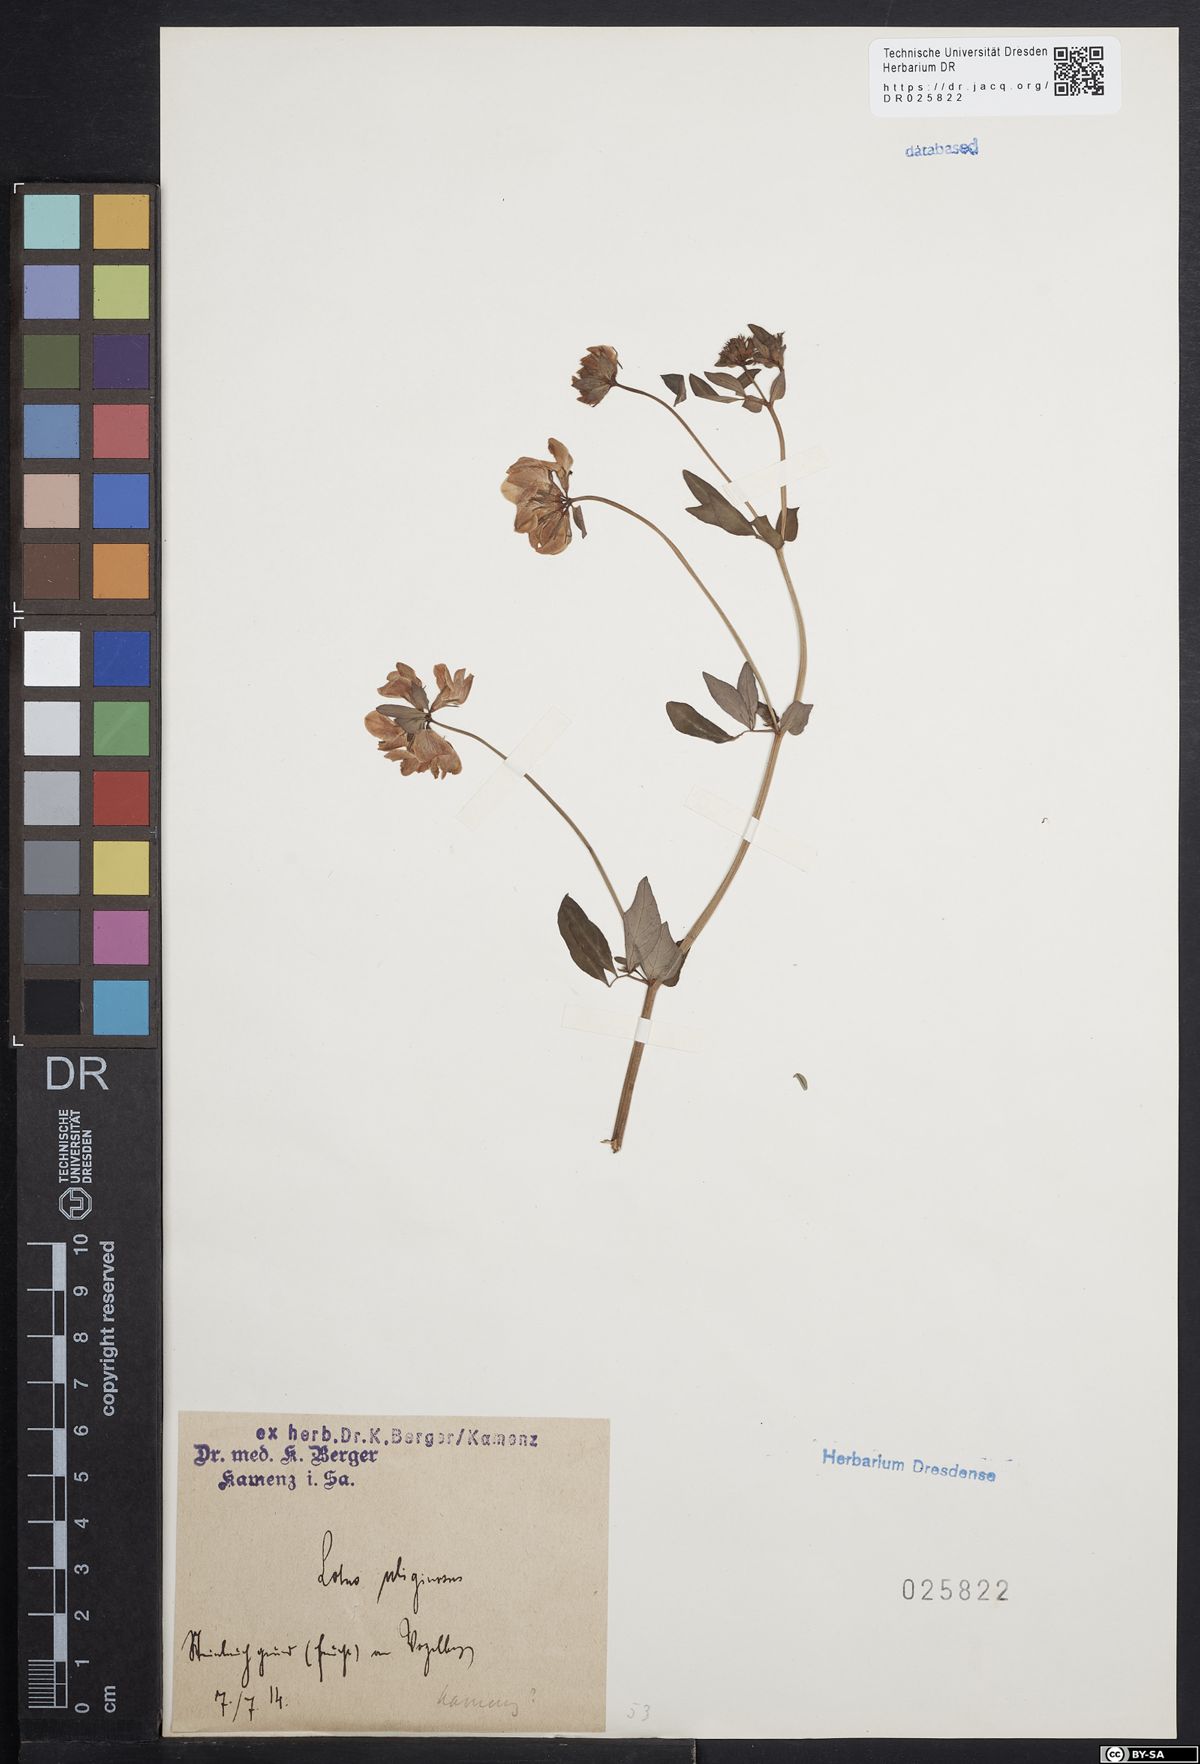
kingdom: Plantae
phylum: Tracheophyta
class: Magnoliopsida
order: Fabales
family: Fabaceae
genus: Lotus
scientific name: Lotus pedunculatus
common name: Greater birdsfoot-trefoil
